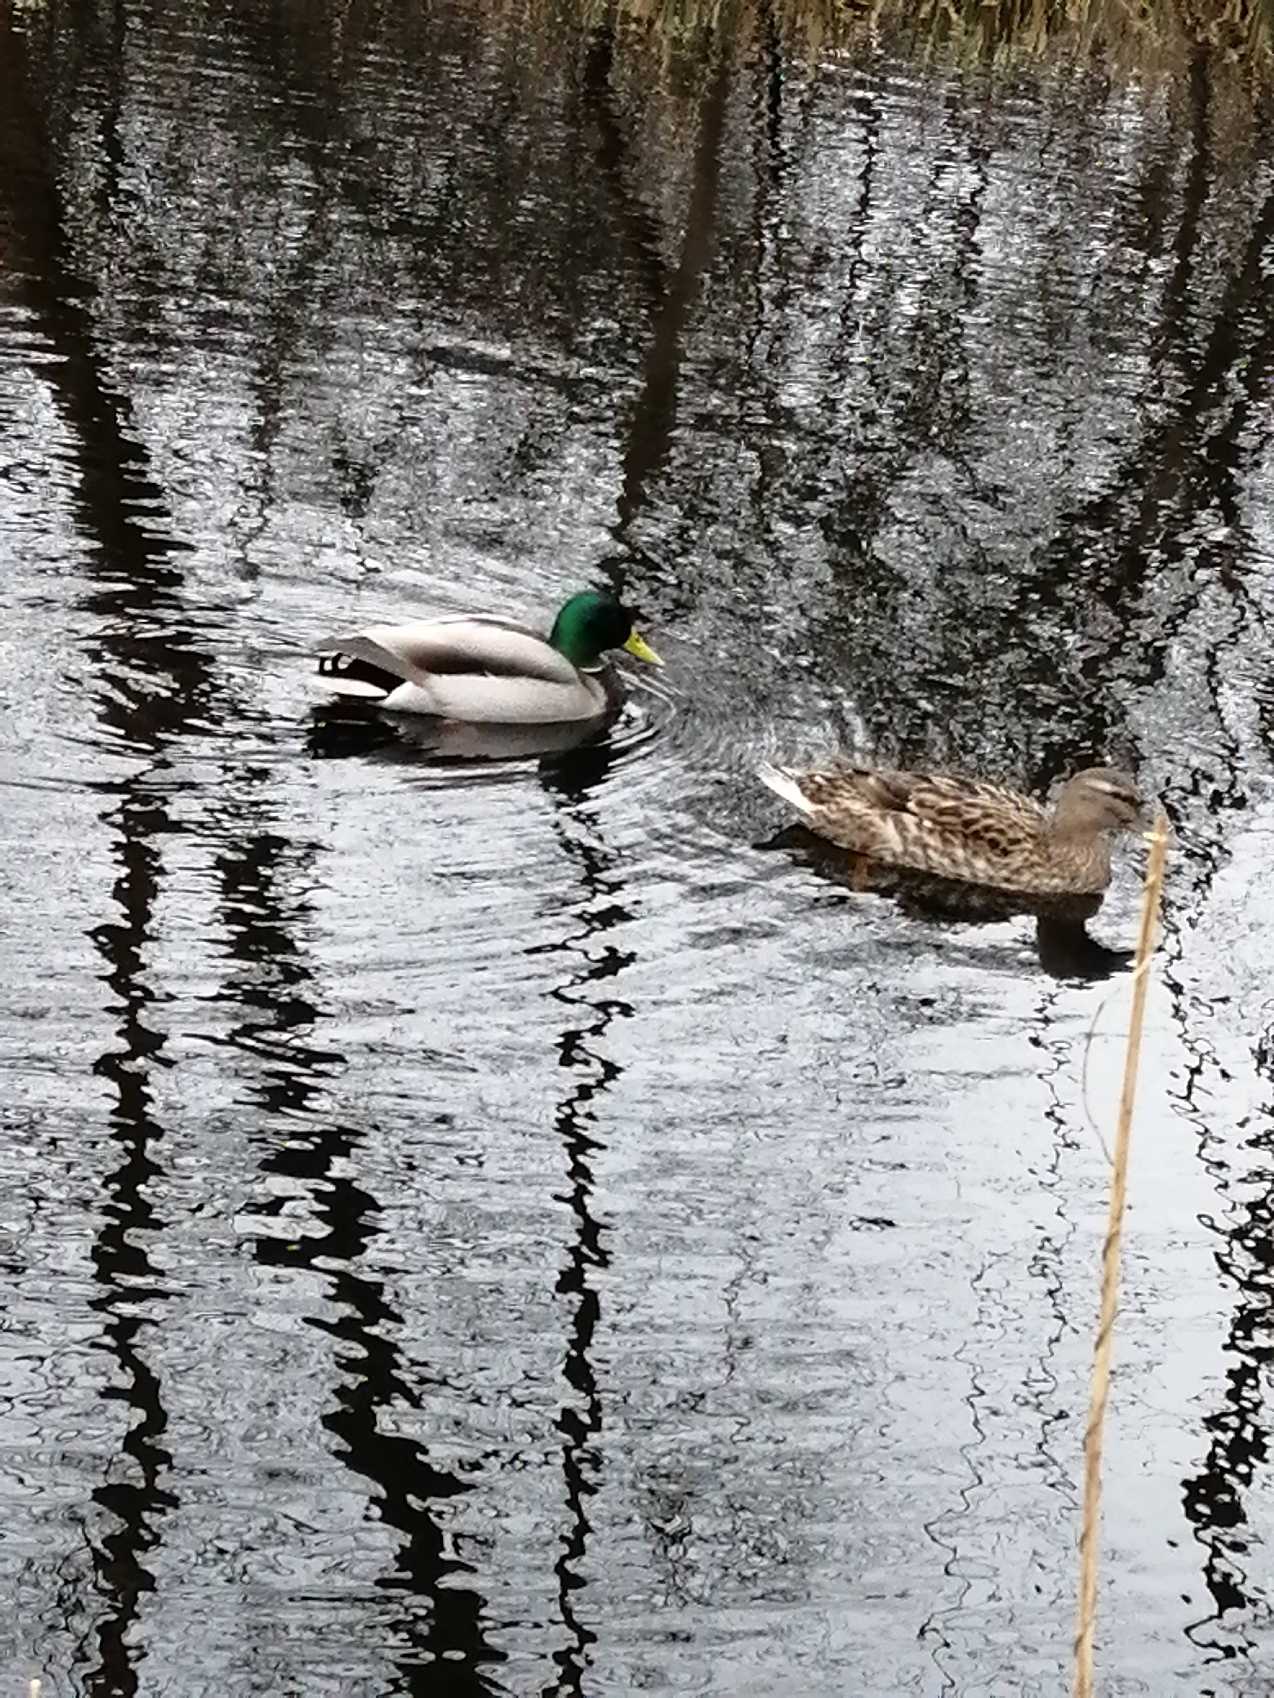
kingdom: Animalia
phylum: Chordata
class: Aves
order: Anseriformes
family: Anatidae
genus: Anas
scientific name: Anas platyrhynchos
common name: Gråand
